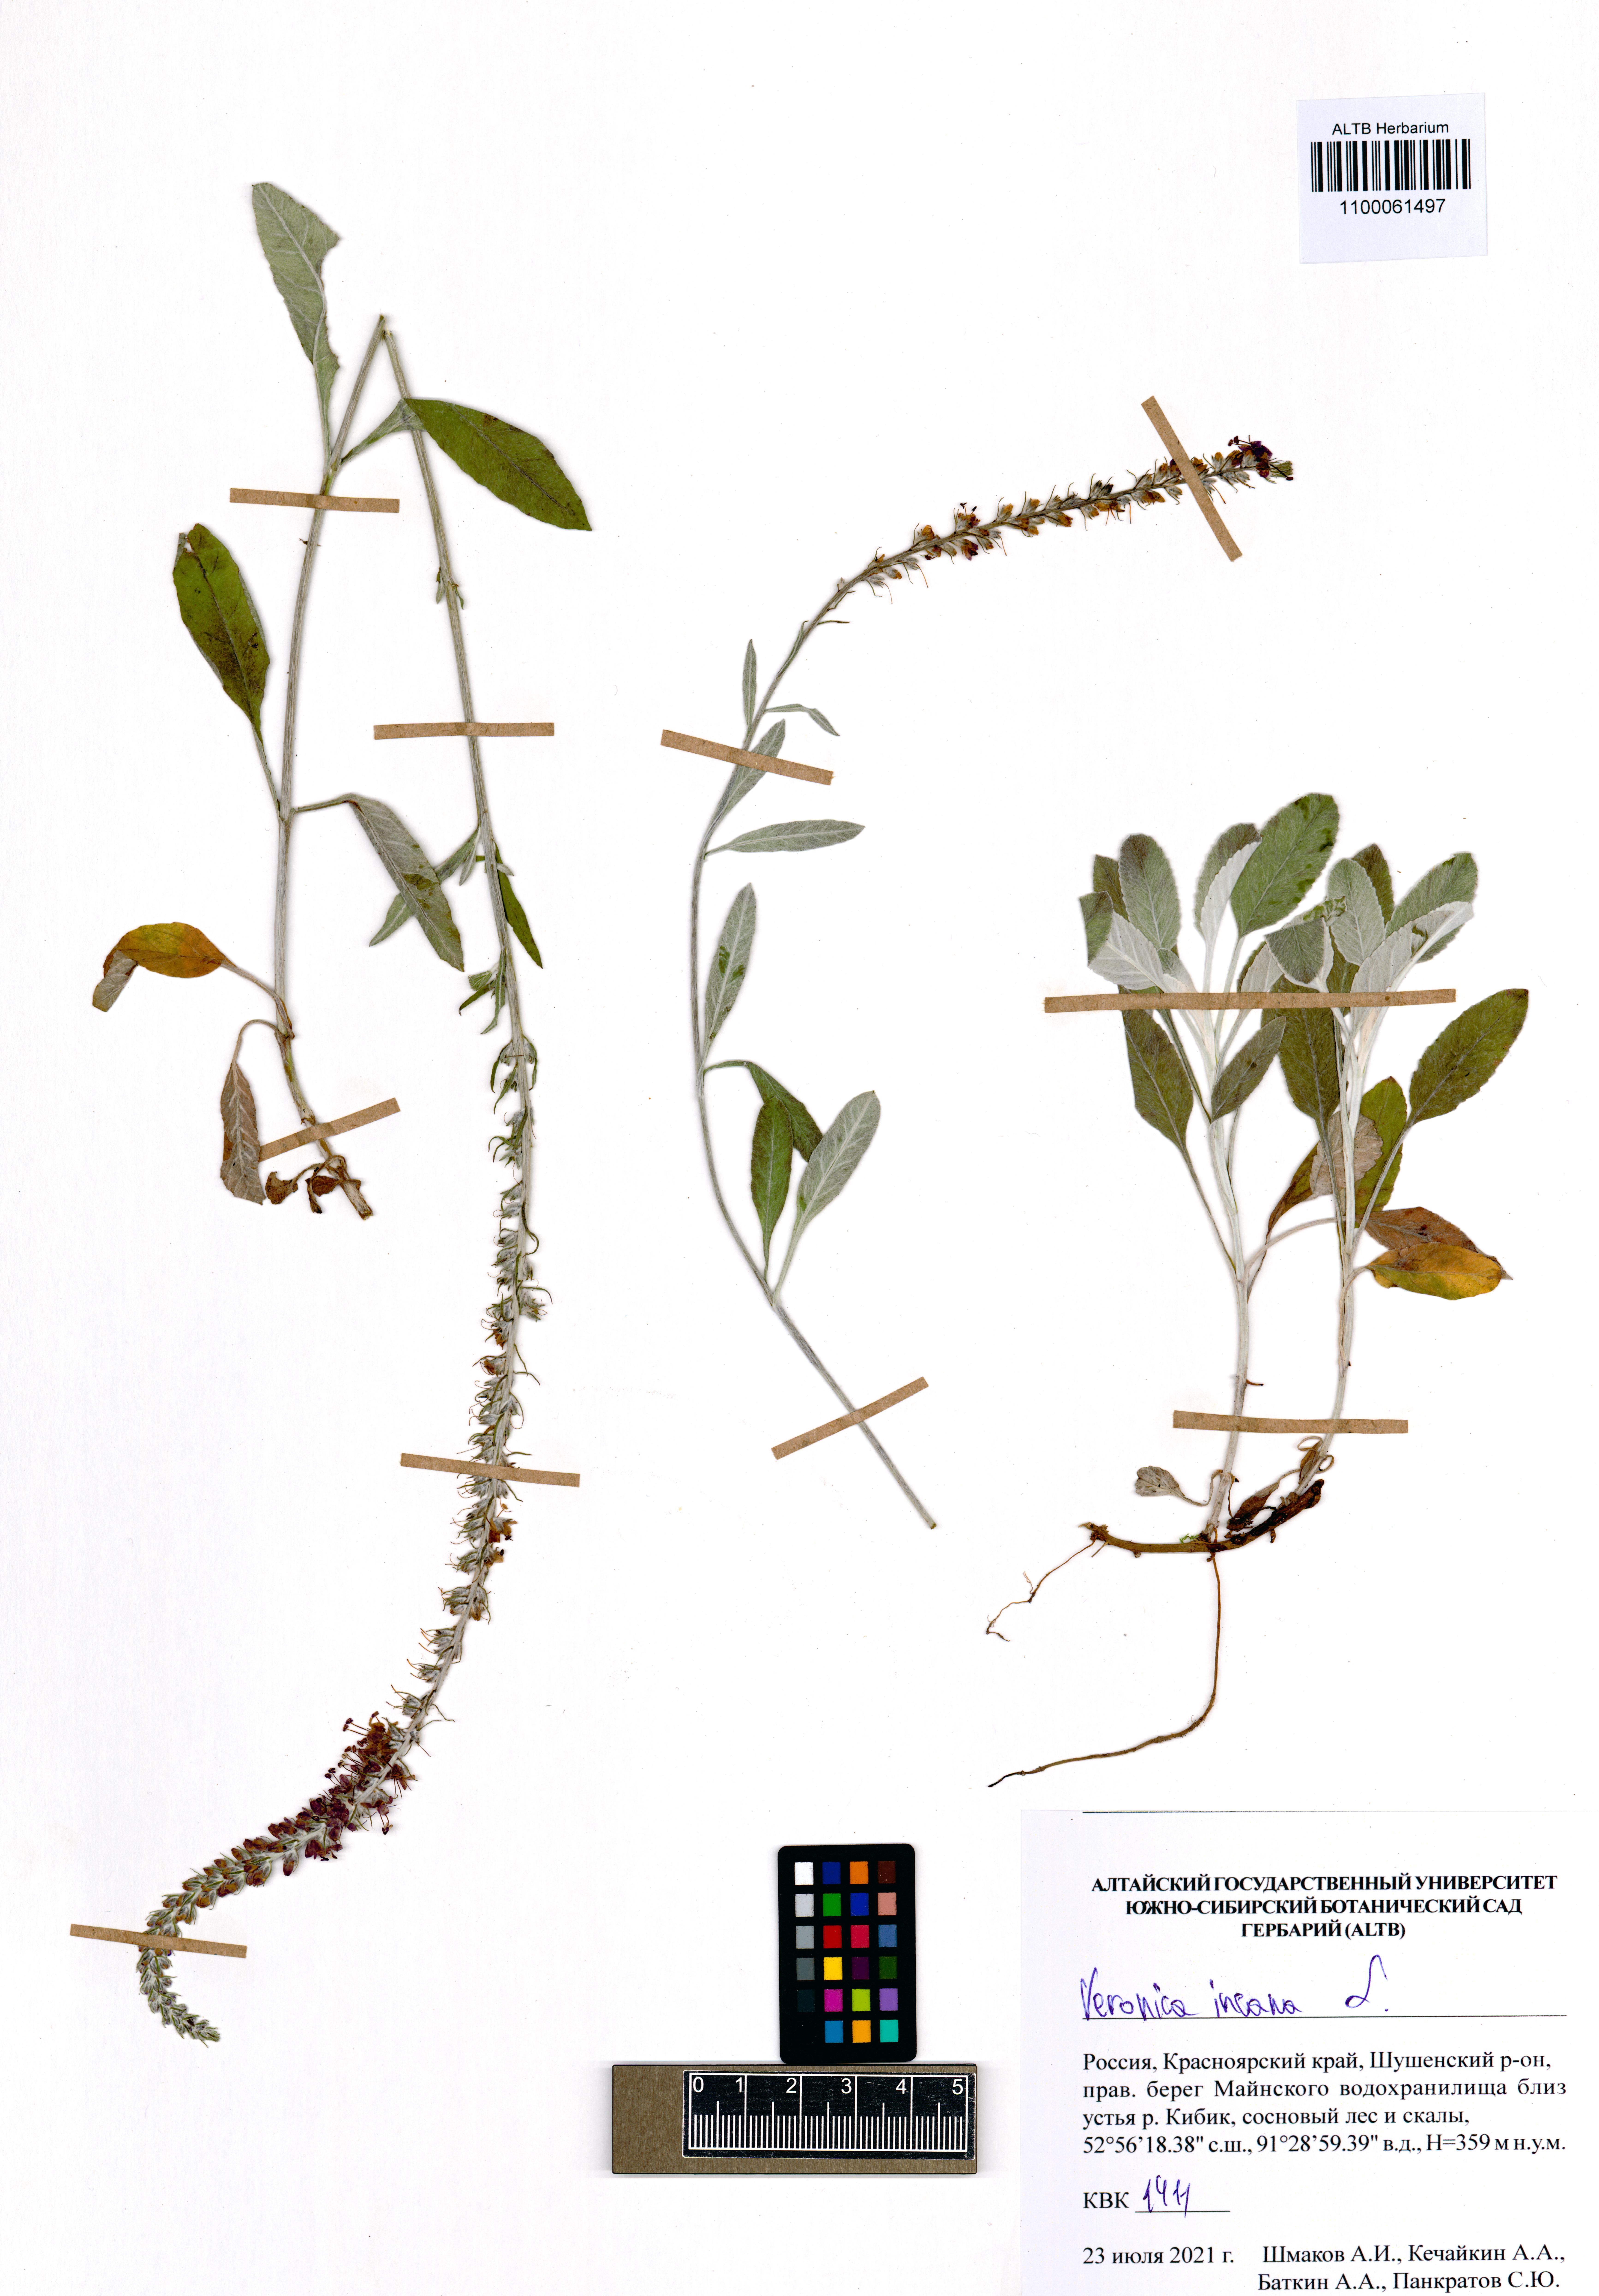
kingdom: Plantae
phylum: Tracheophyta
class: Magnoliopsida
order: Lamiales
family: Plantaginaceae
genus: Veronica
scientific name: Veronica incana
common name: Silver speedwell
